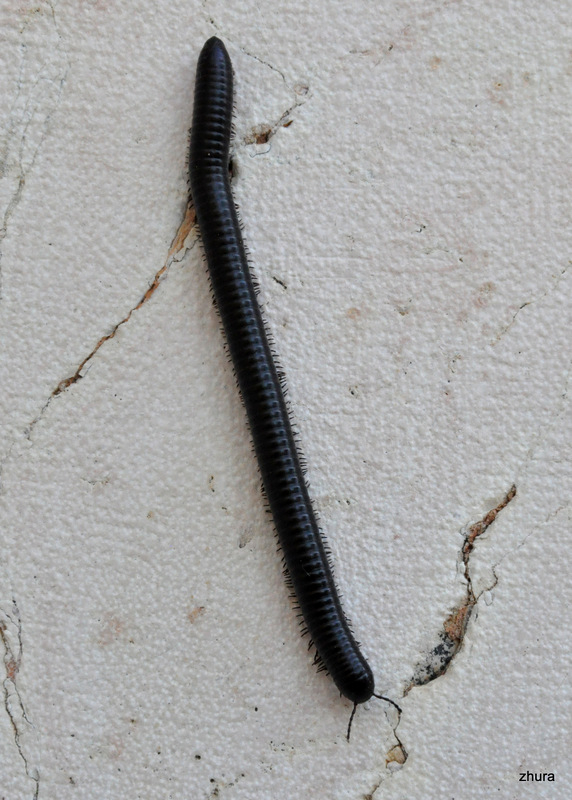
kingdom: Animalia
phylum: Arthropoda
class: Diplopoda
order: Spirostreptida
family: Spirostreptidae
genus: Archispirostreptus
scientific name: Archispirostreptus syriacus
